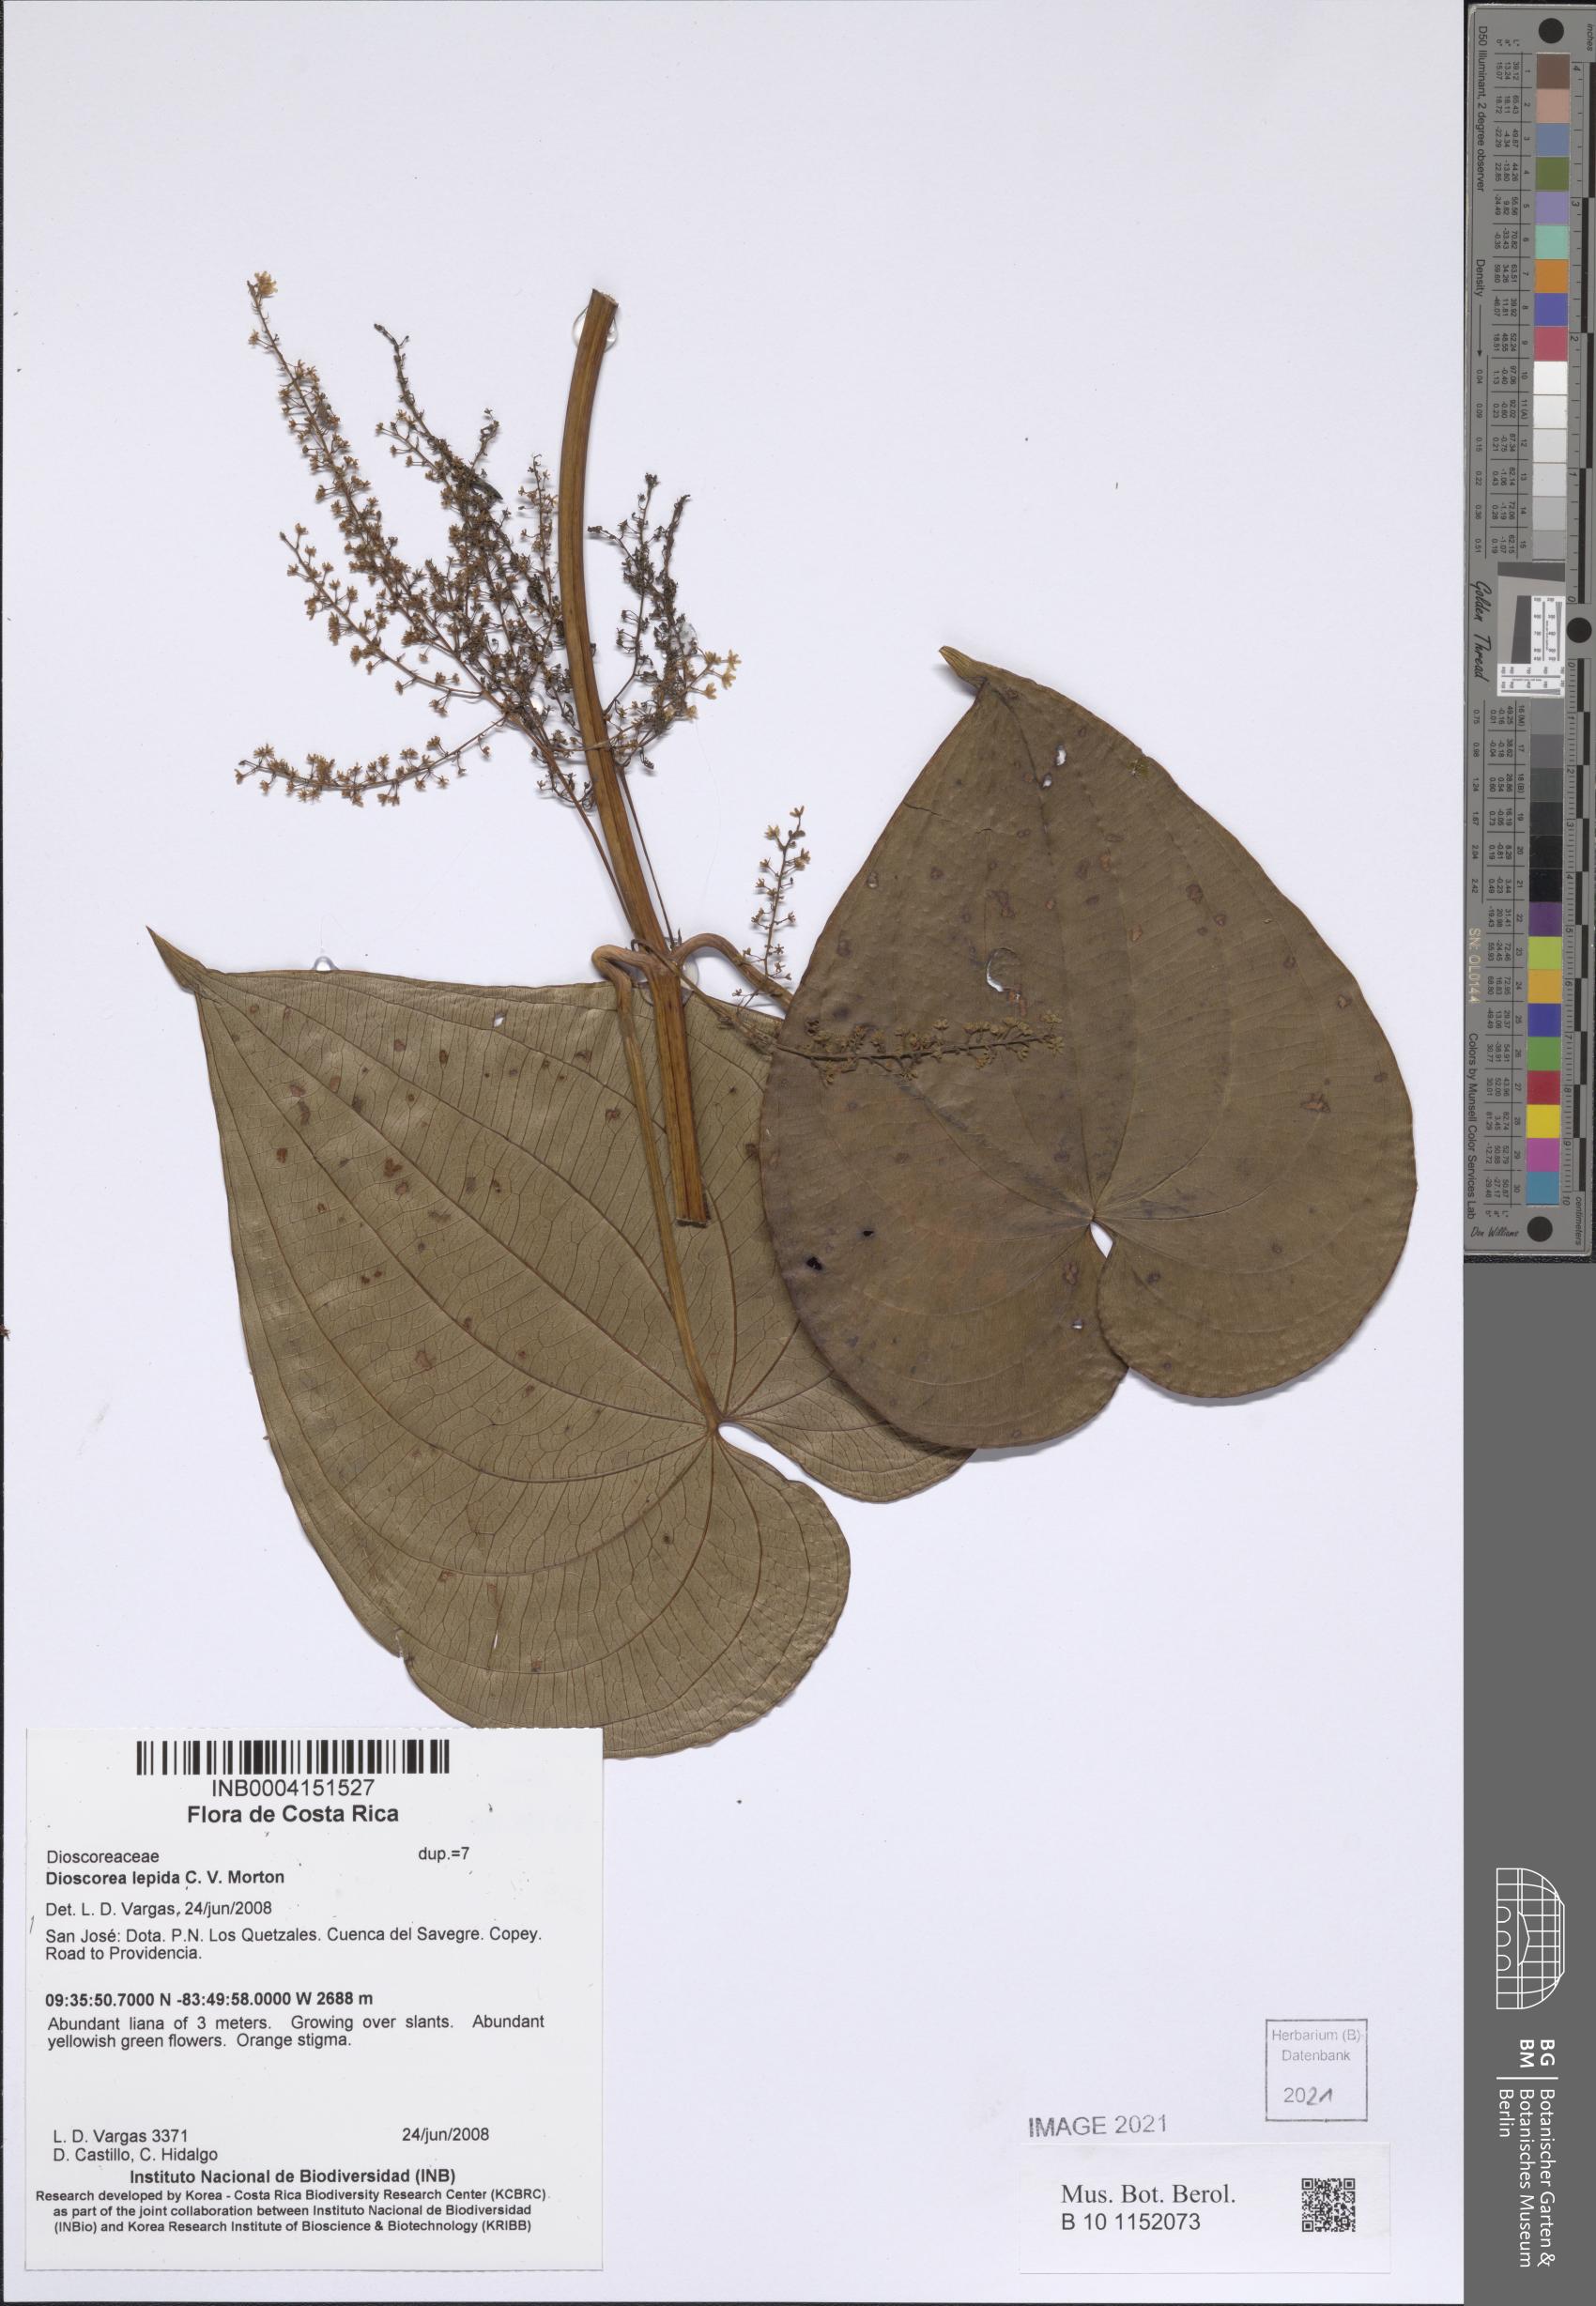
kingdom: Plantae
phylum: Tracheophyta
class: Liliopsida
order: Dioscoreales
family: Dioscoreaceae
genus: Dioscorea
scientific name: Dioscorea lepida
